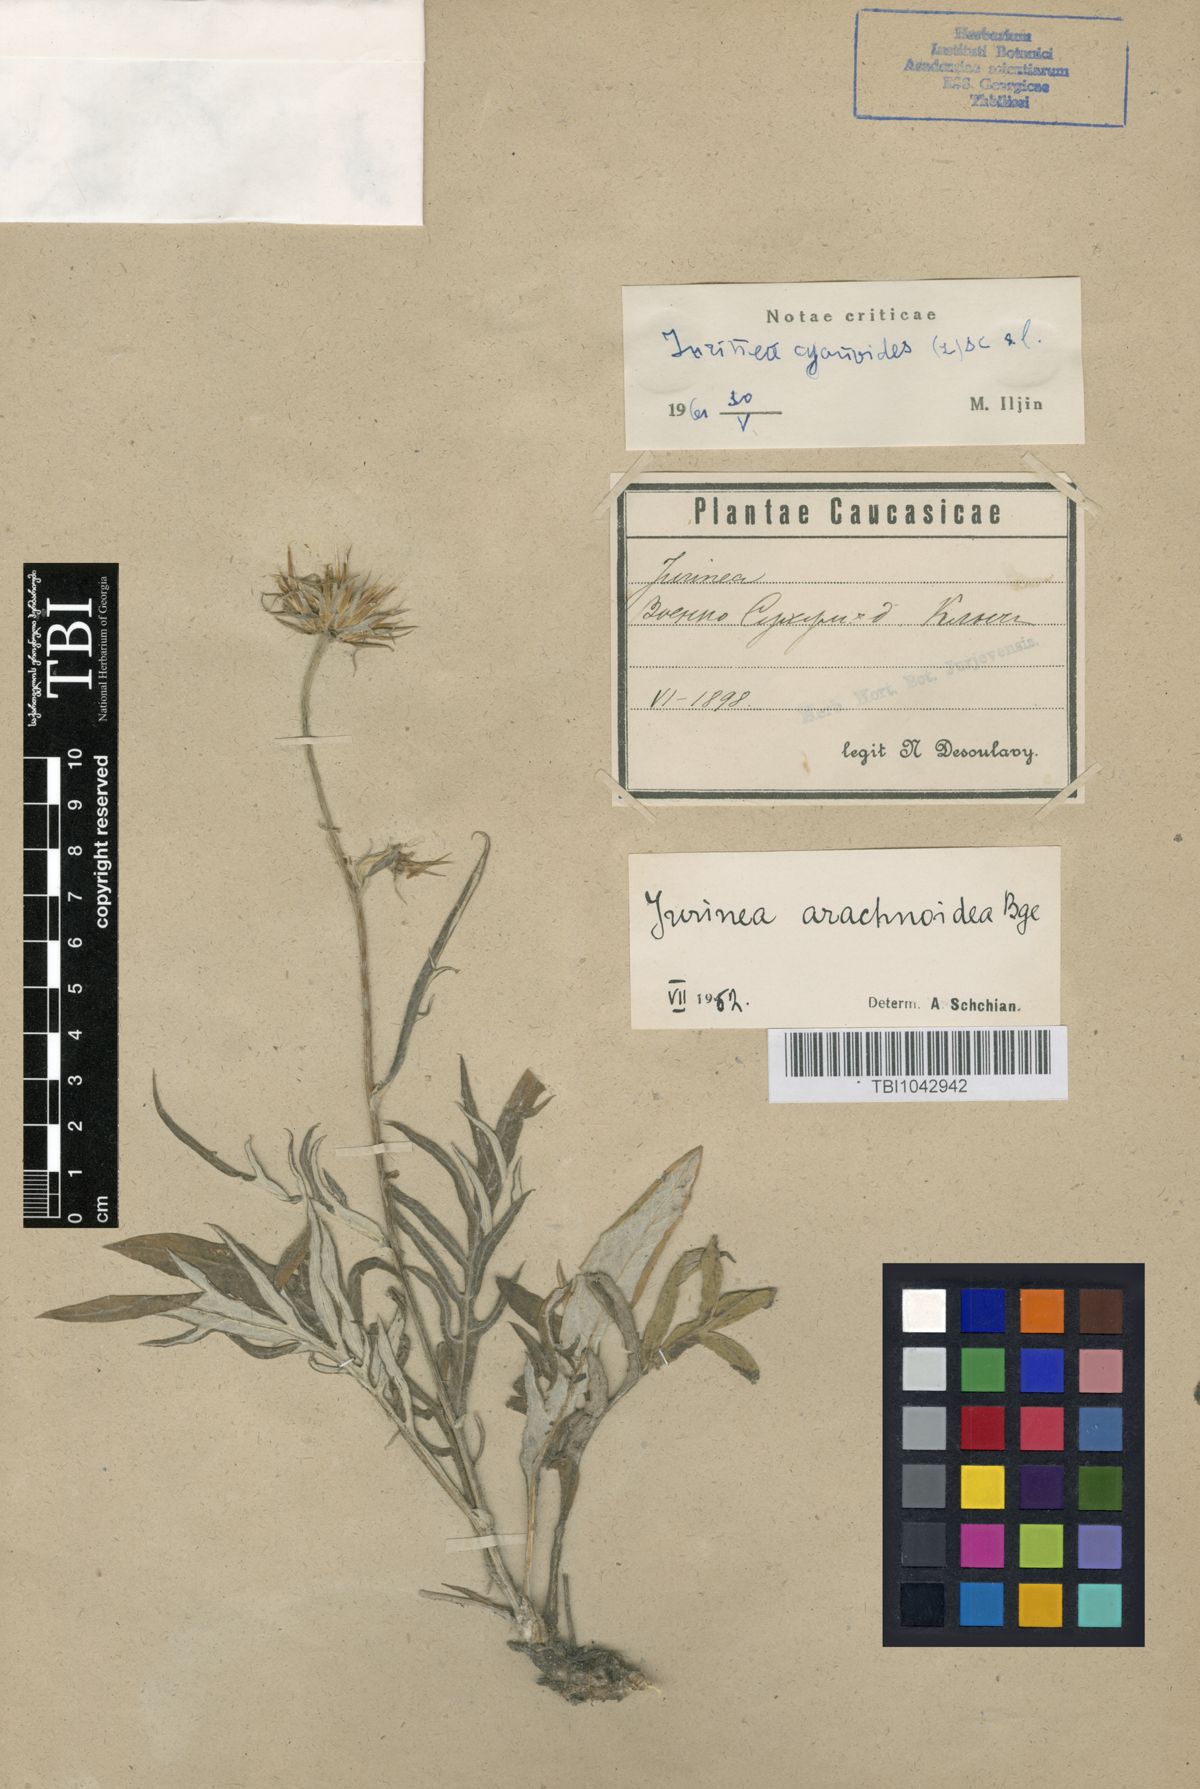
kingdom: Plantae
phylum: Tracheophyta
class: Magnoliopsida
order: Asterales
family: Asteraceae
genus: Jurinea
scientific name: Jurinea cyanoides
